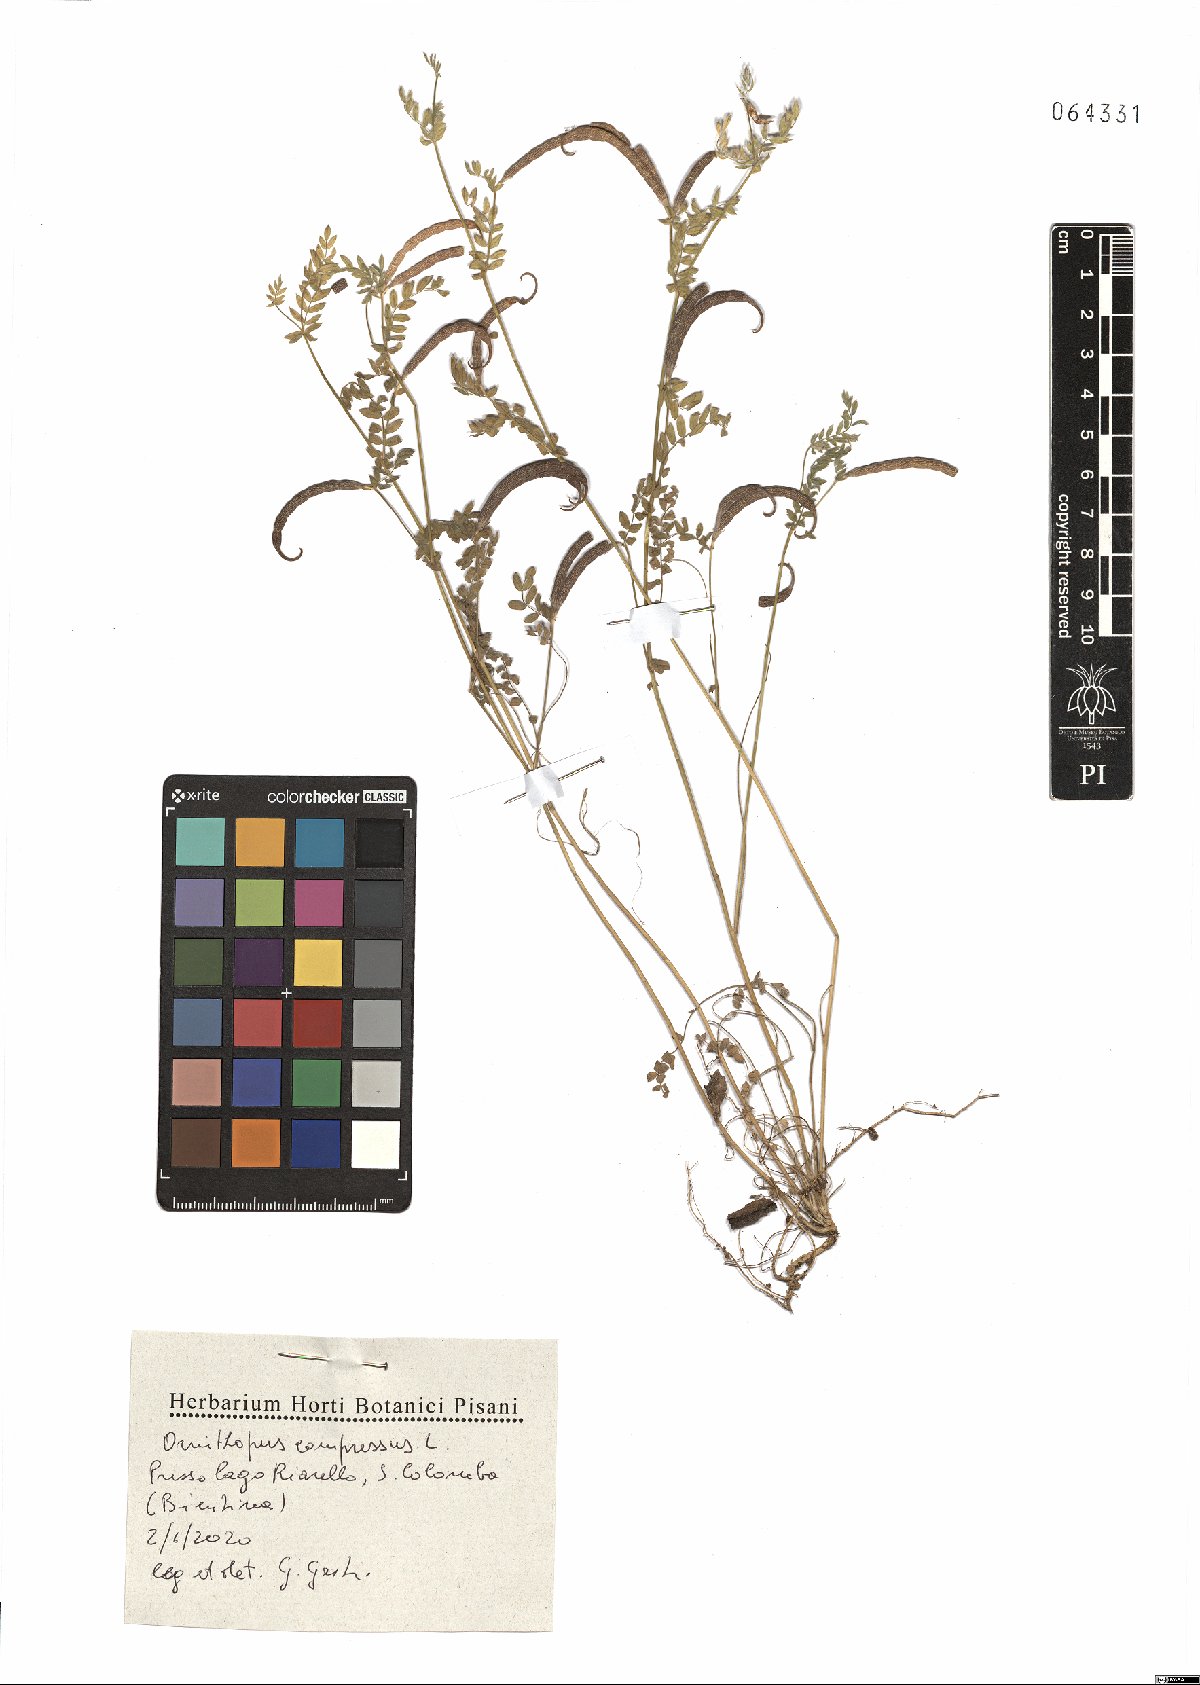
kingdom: Plantae
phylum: Tracheophyta
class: Magnoliopsida
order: Fabales
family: Fabaceae
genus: Ornithopus
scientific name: Ornithopus compressus
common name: Yellow serradella
